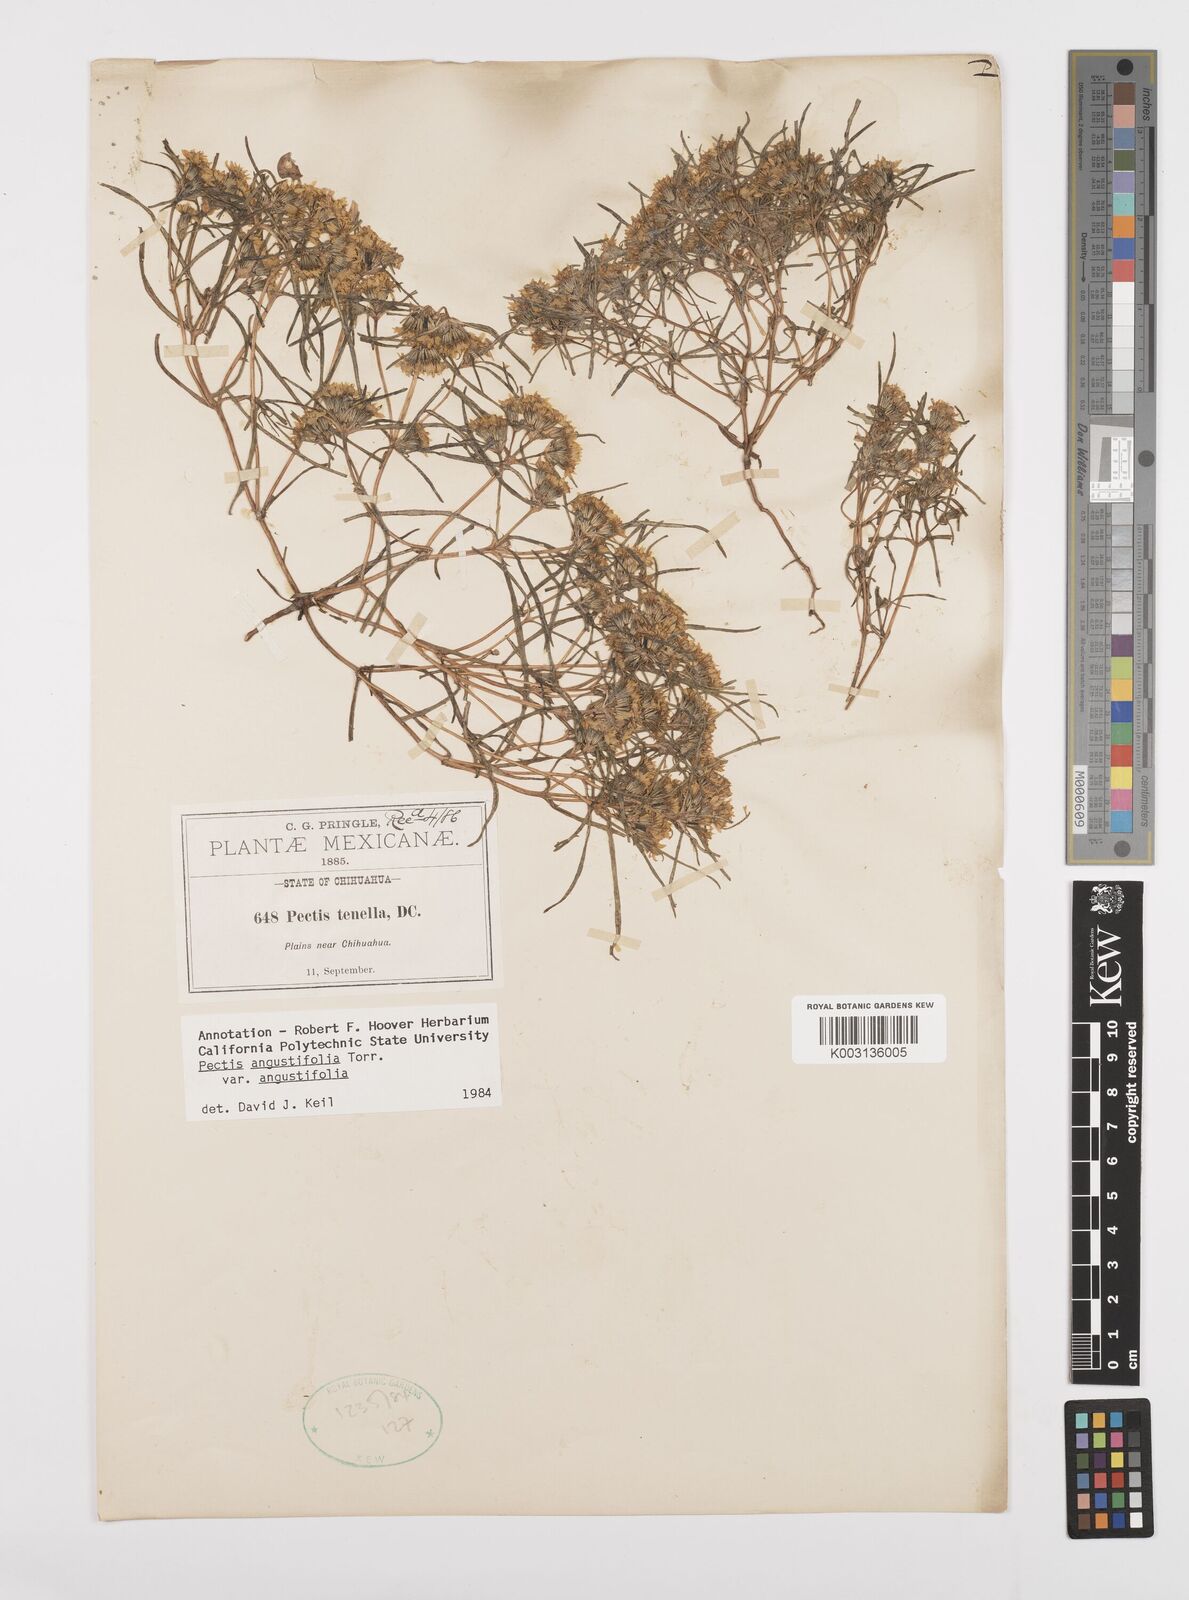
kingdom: Plantae
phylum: Tracheophyta
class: Magnoliopsida
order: Asterales
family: Asteraceae
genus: Pectis
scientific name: Pectis angustifolia
